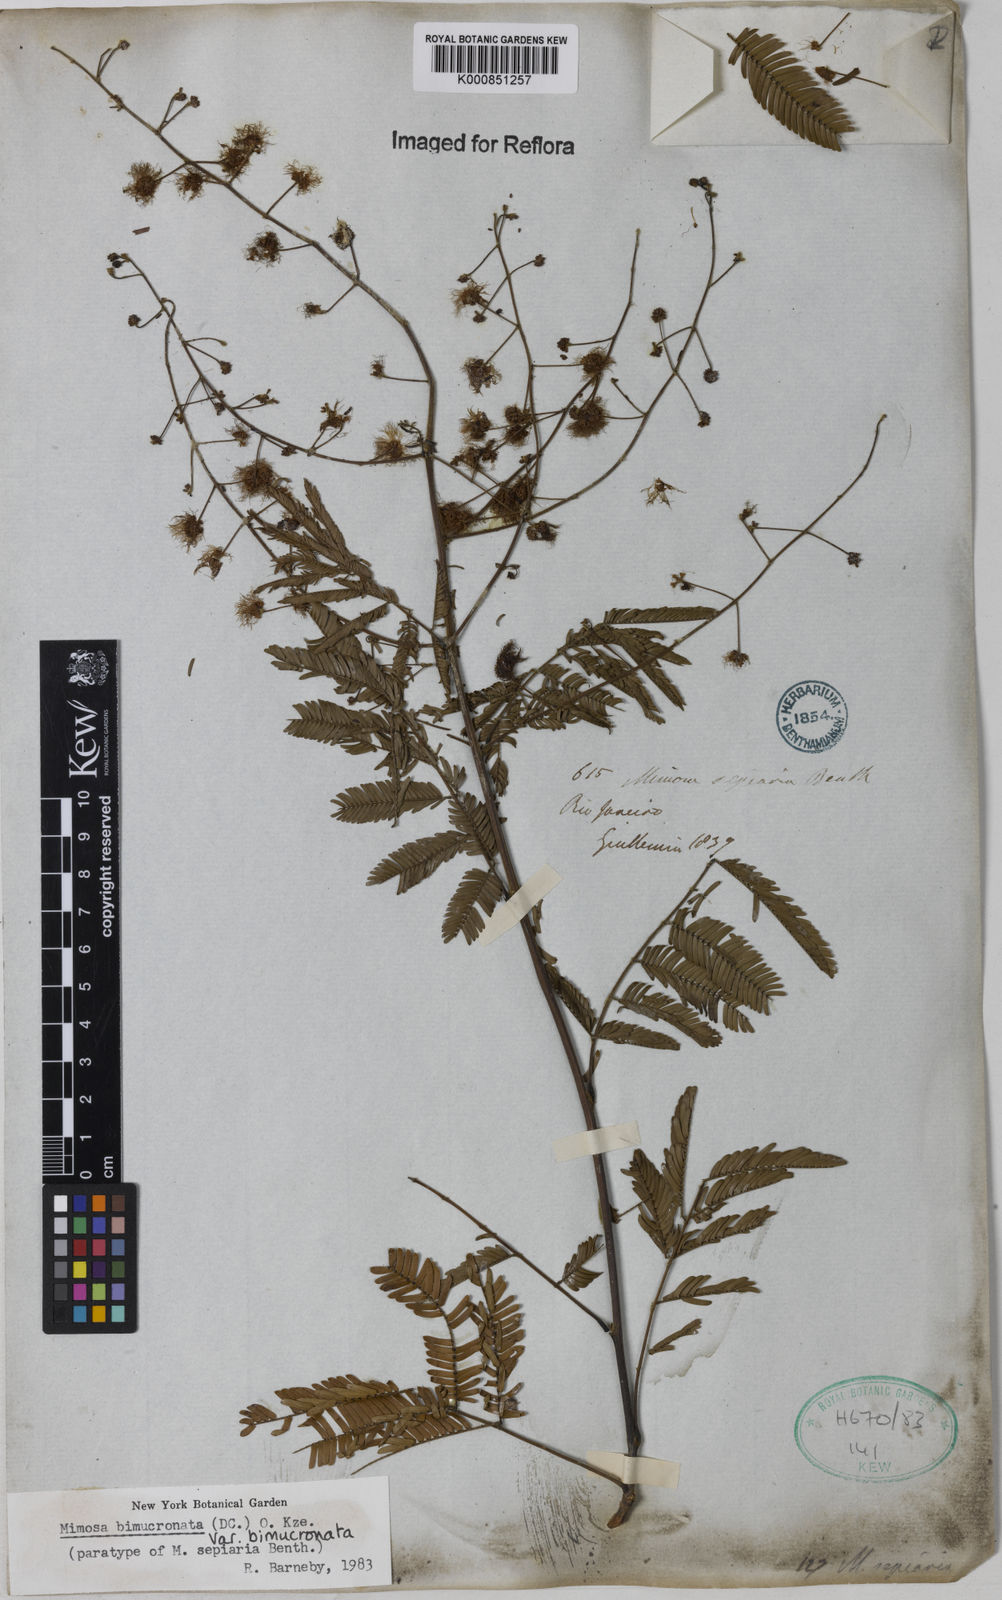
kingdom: Plantae
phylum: Tracheophyta
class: Magnoliopsida
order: Fabales
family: Fabaceae
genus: Mimosa
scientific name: Mimosa bimucronata
